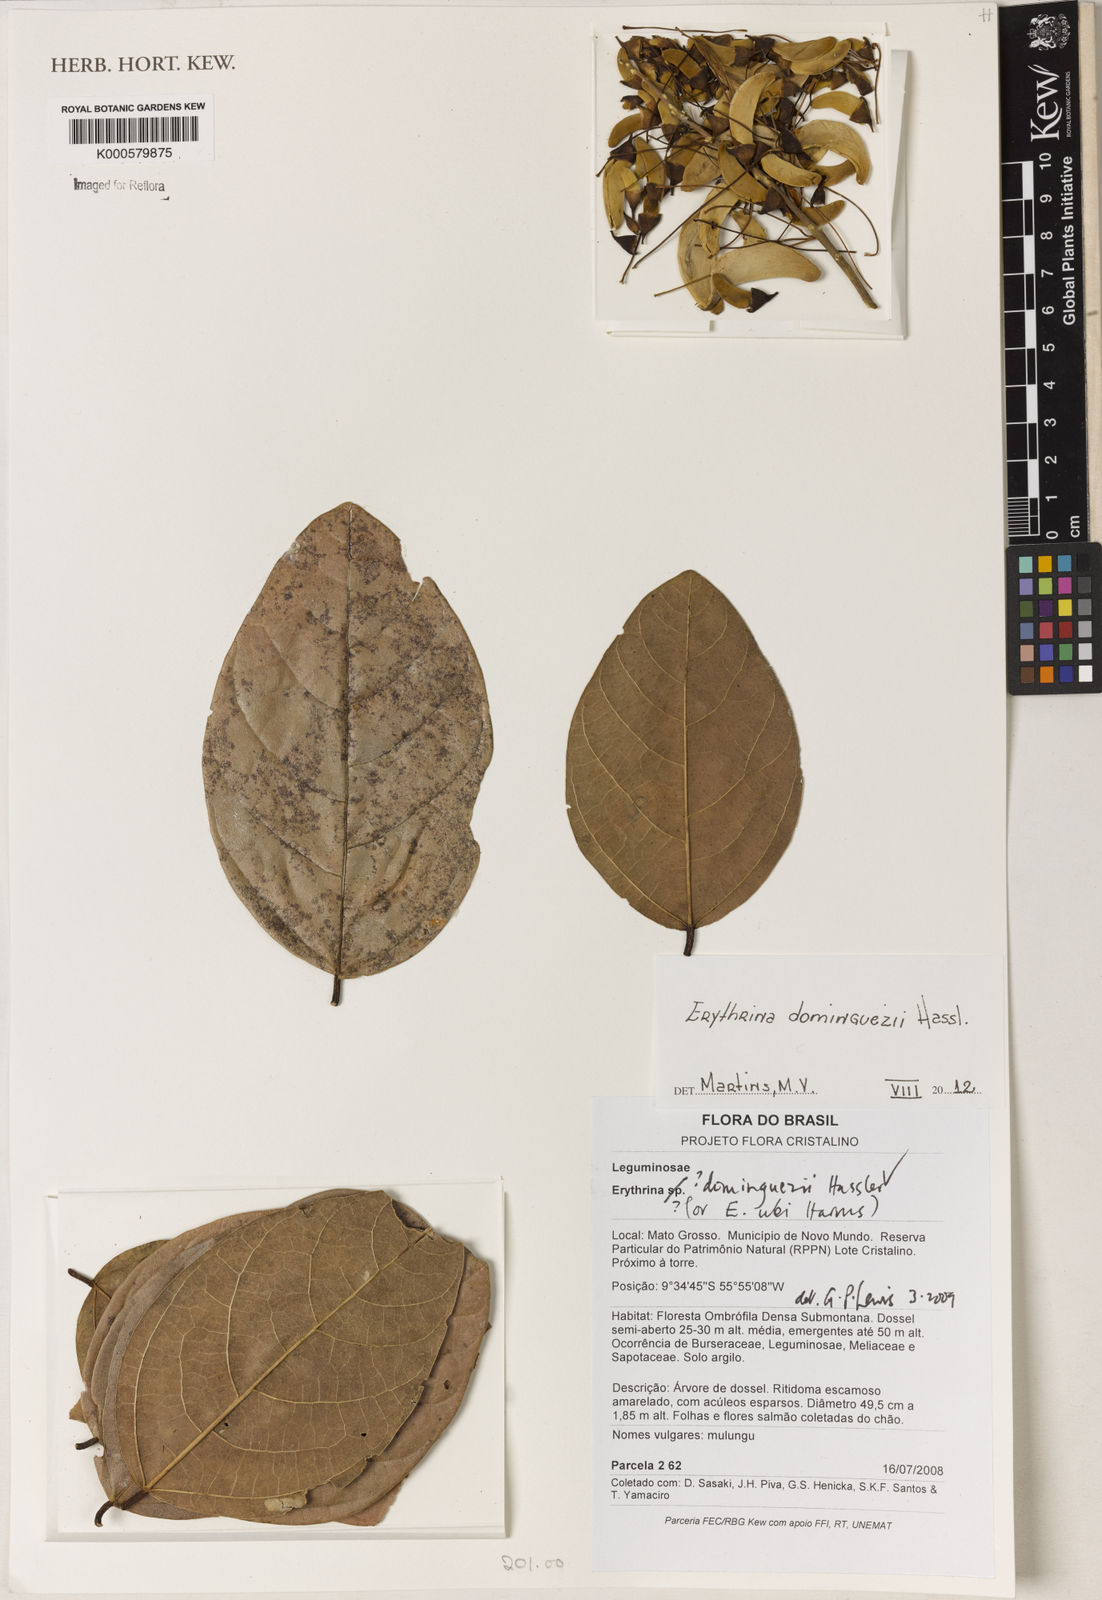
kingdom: Plantae
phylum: Tracheophyta
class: Magnoliopsida
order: Fabales
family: Fabaceae
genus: Erythrina
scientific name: Erythrina mulungu
